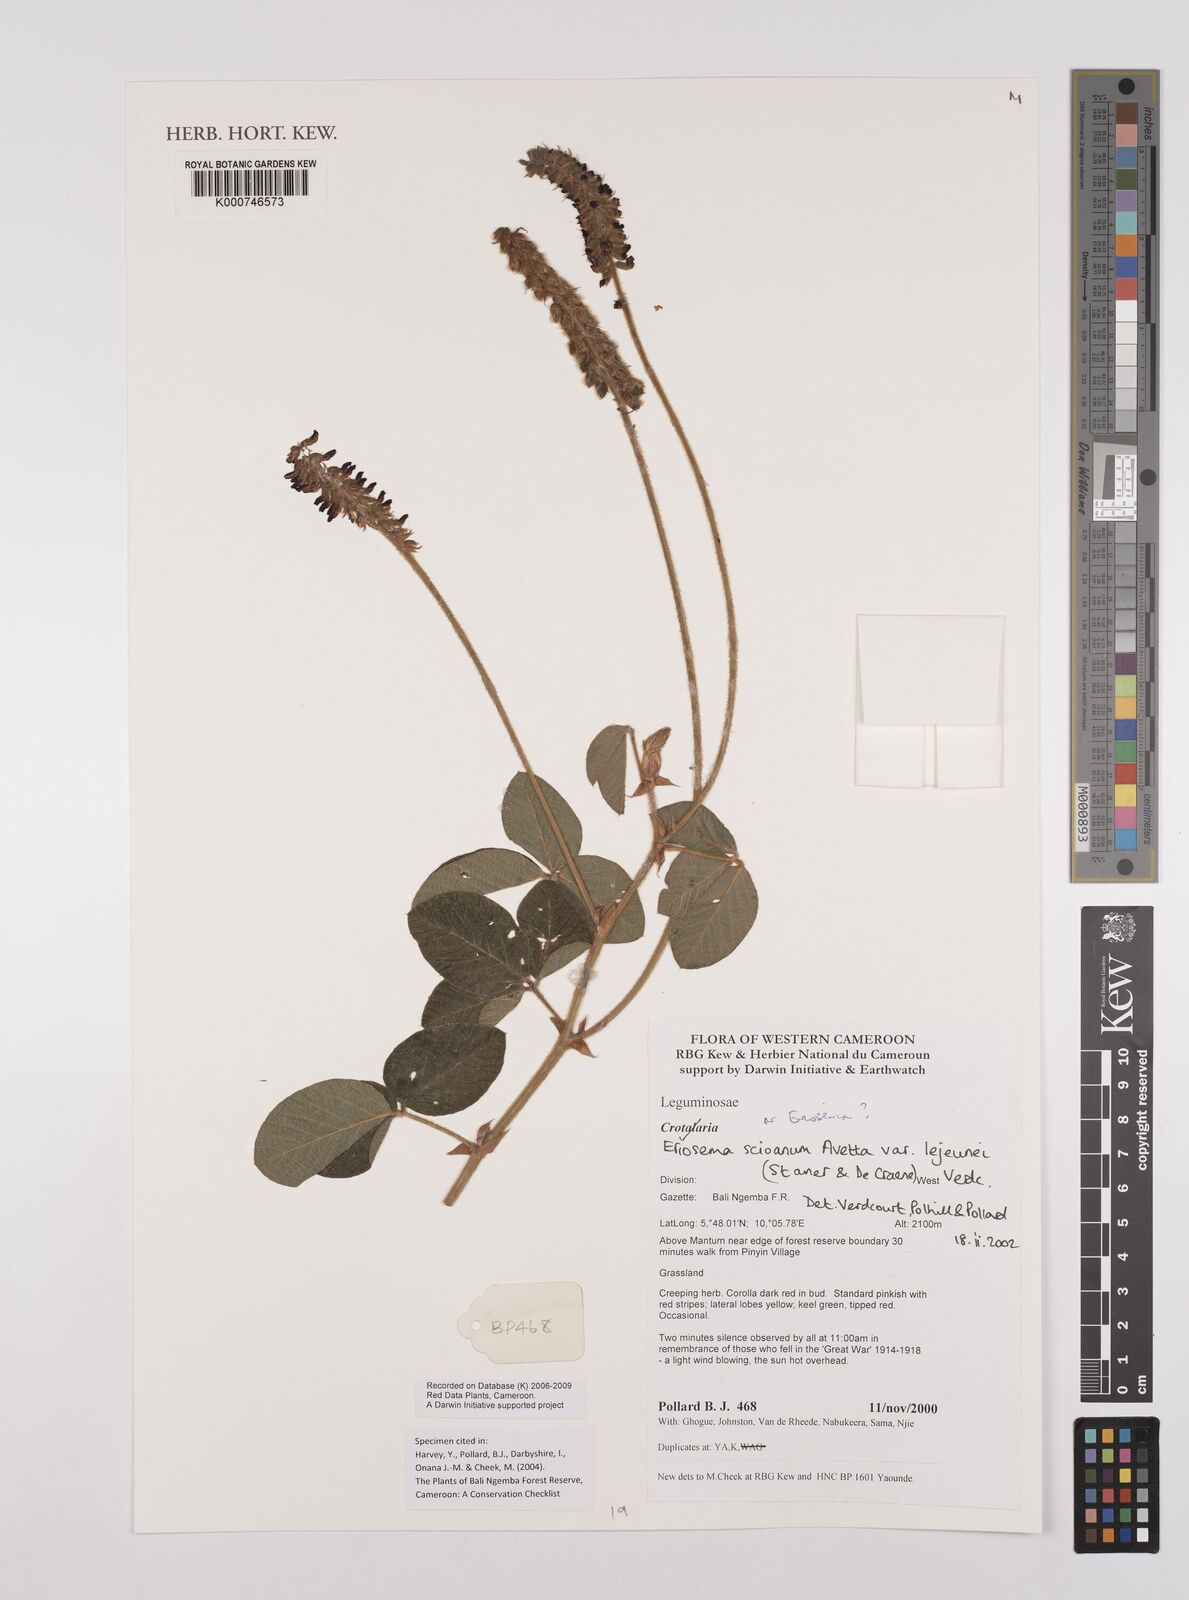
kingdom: Plantae
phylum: Tracheophyta
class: Magnoliopsida
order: Fabales
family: Fabaceae
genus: Eriosema
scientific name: Eriosema scioanum
